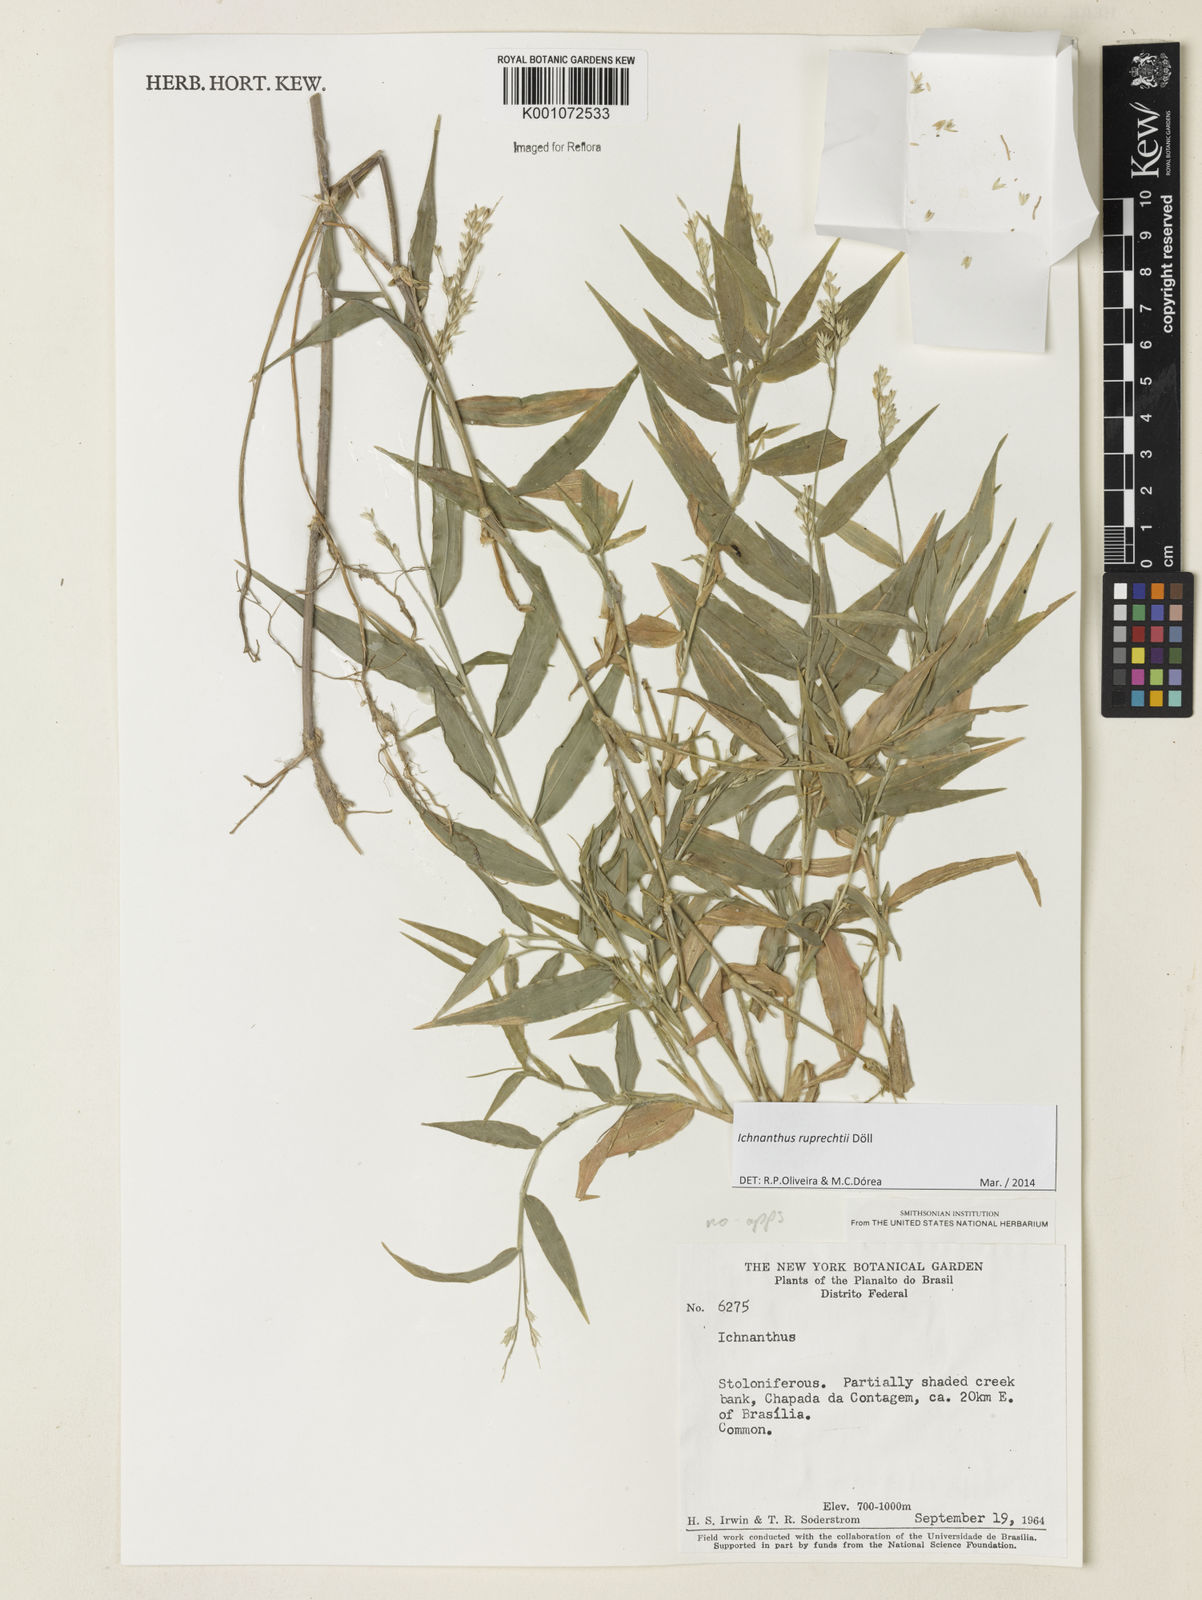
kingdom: Plantae
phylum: Tracheophyta
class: Liliopsida
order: Poales
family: Poaceae
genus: Ichnanthus
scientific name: Ichnanthus
